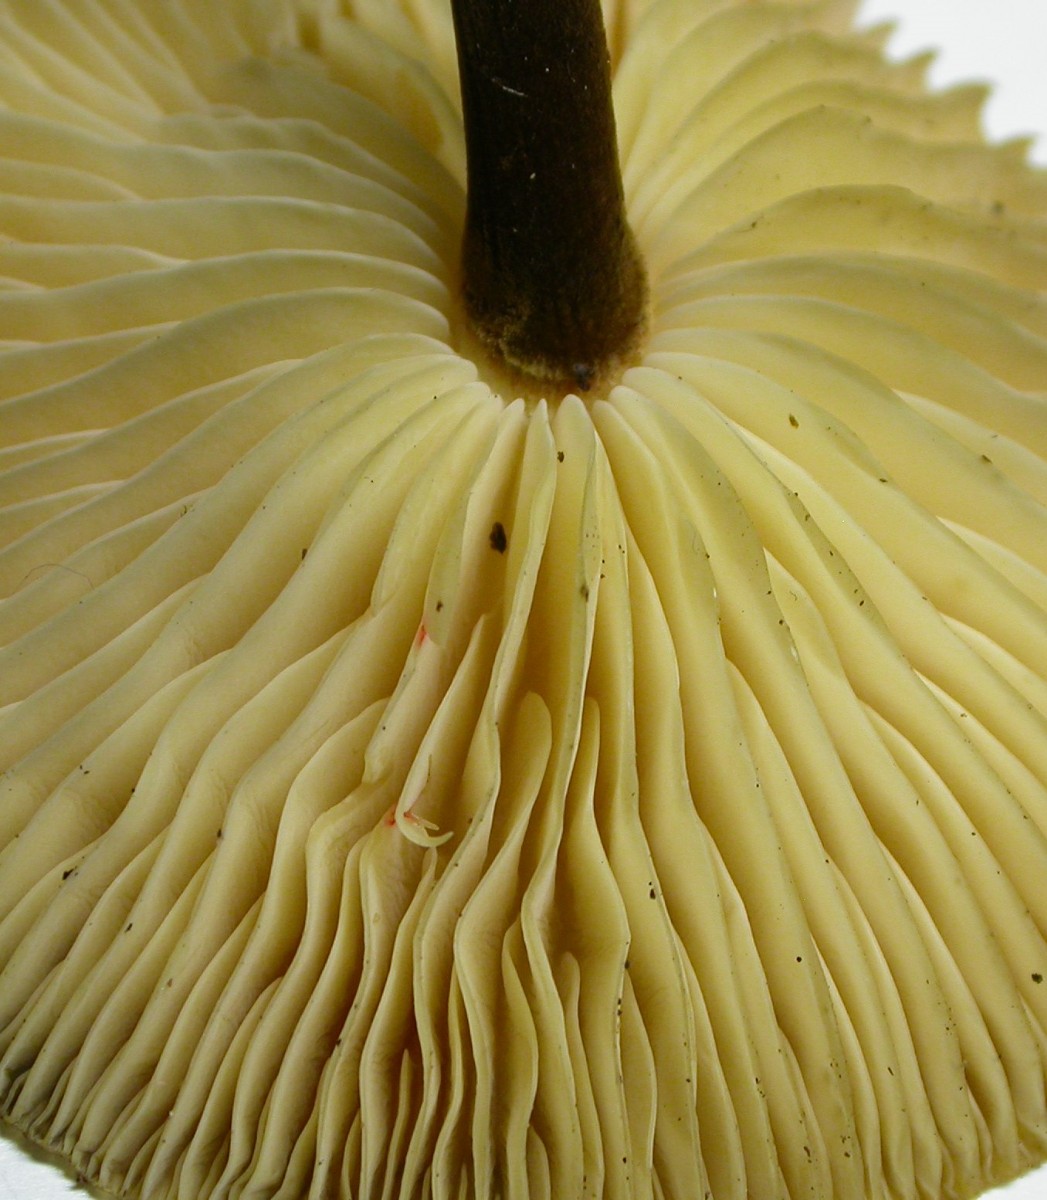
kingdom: Fungi
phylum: Basidiomycota
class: Agaricomycetes
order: Agaricales
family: Physalacriaceae
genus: Flammulina
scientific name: Flammulina elastica
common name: pile-fløjlsfod
